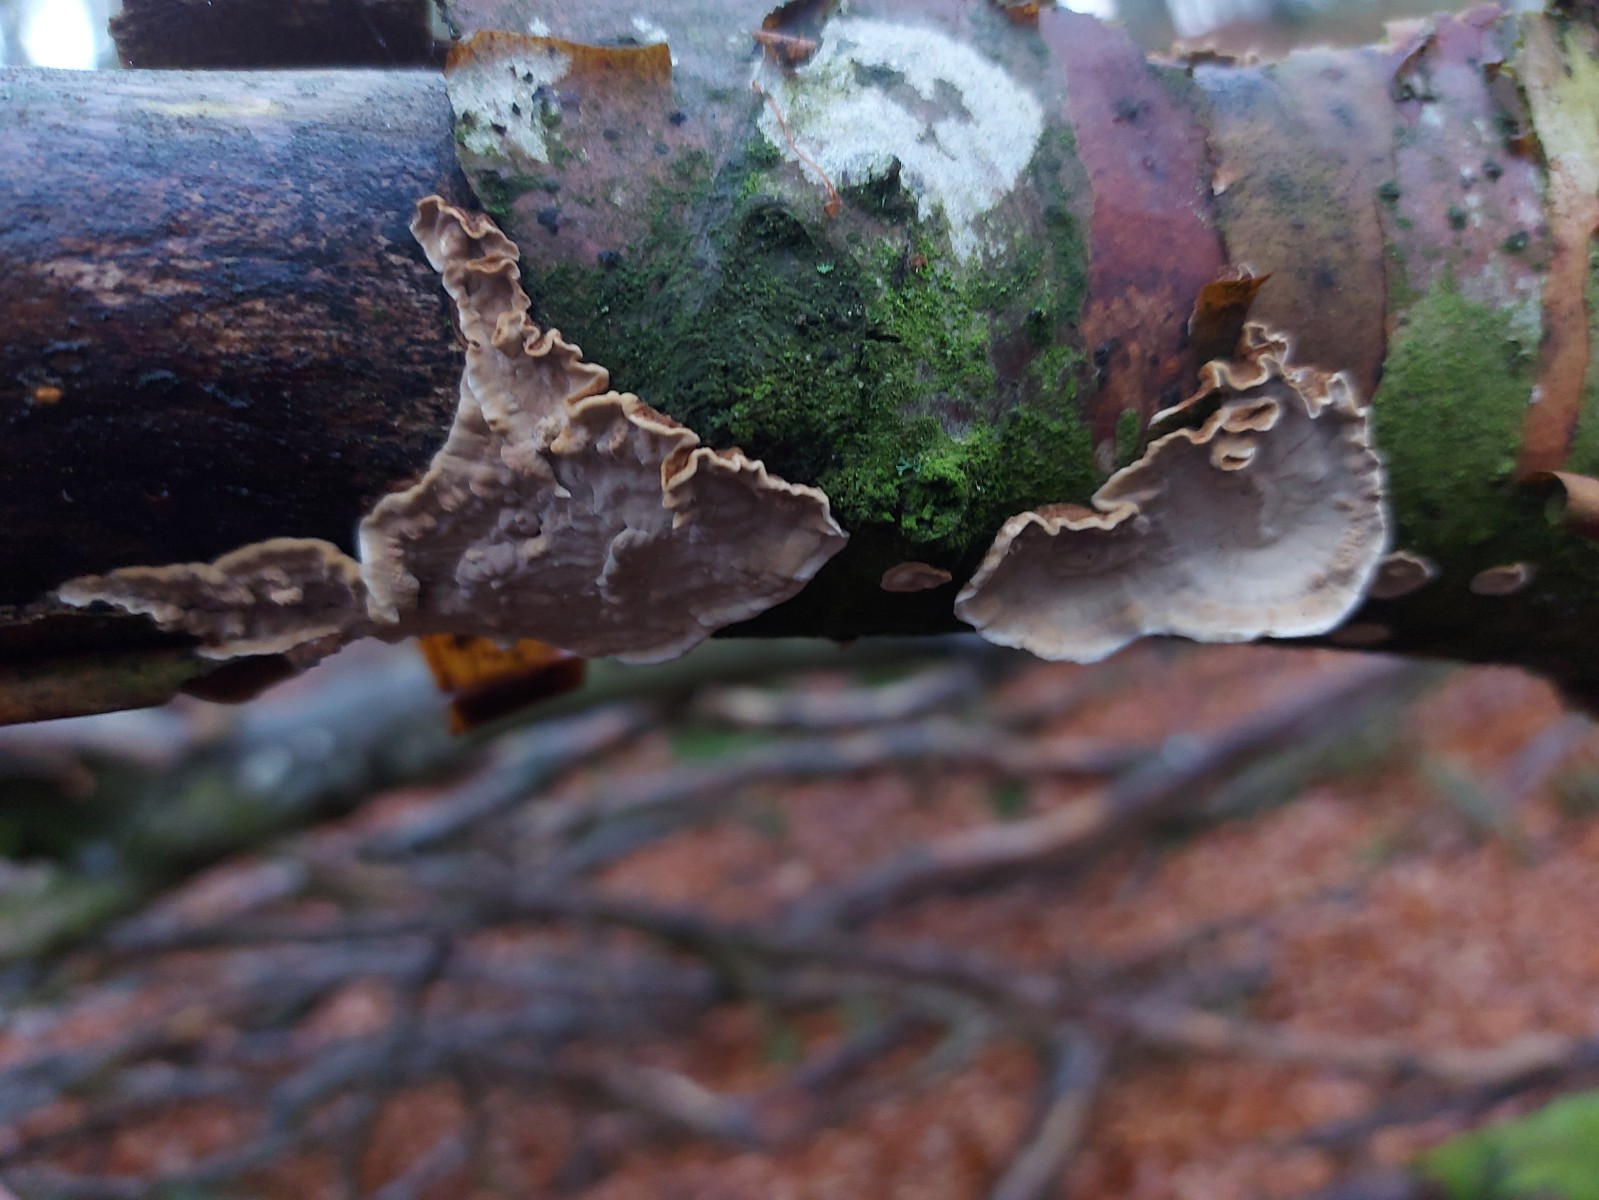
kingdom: Fungi
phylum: Basidiomycota
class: Agaricomycetes
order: Russulales
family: Hericiaceae
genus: Laxitextum
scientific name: Laxitextum bicolor
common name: tvefarvet filtskind
